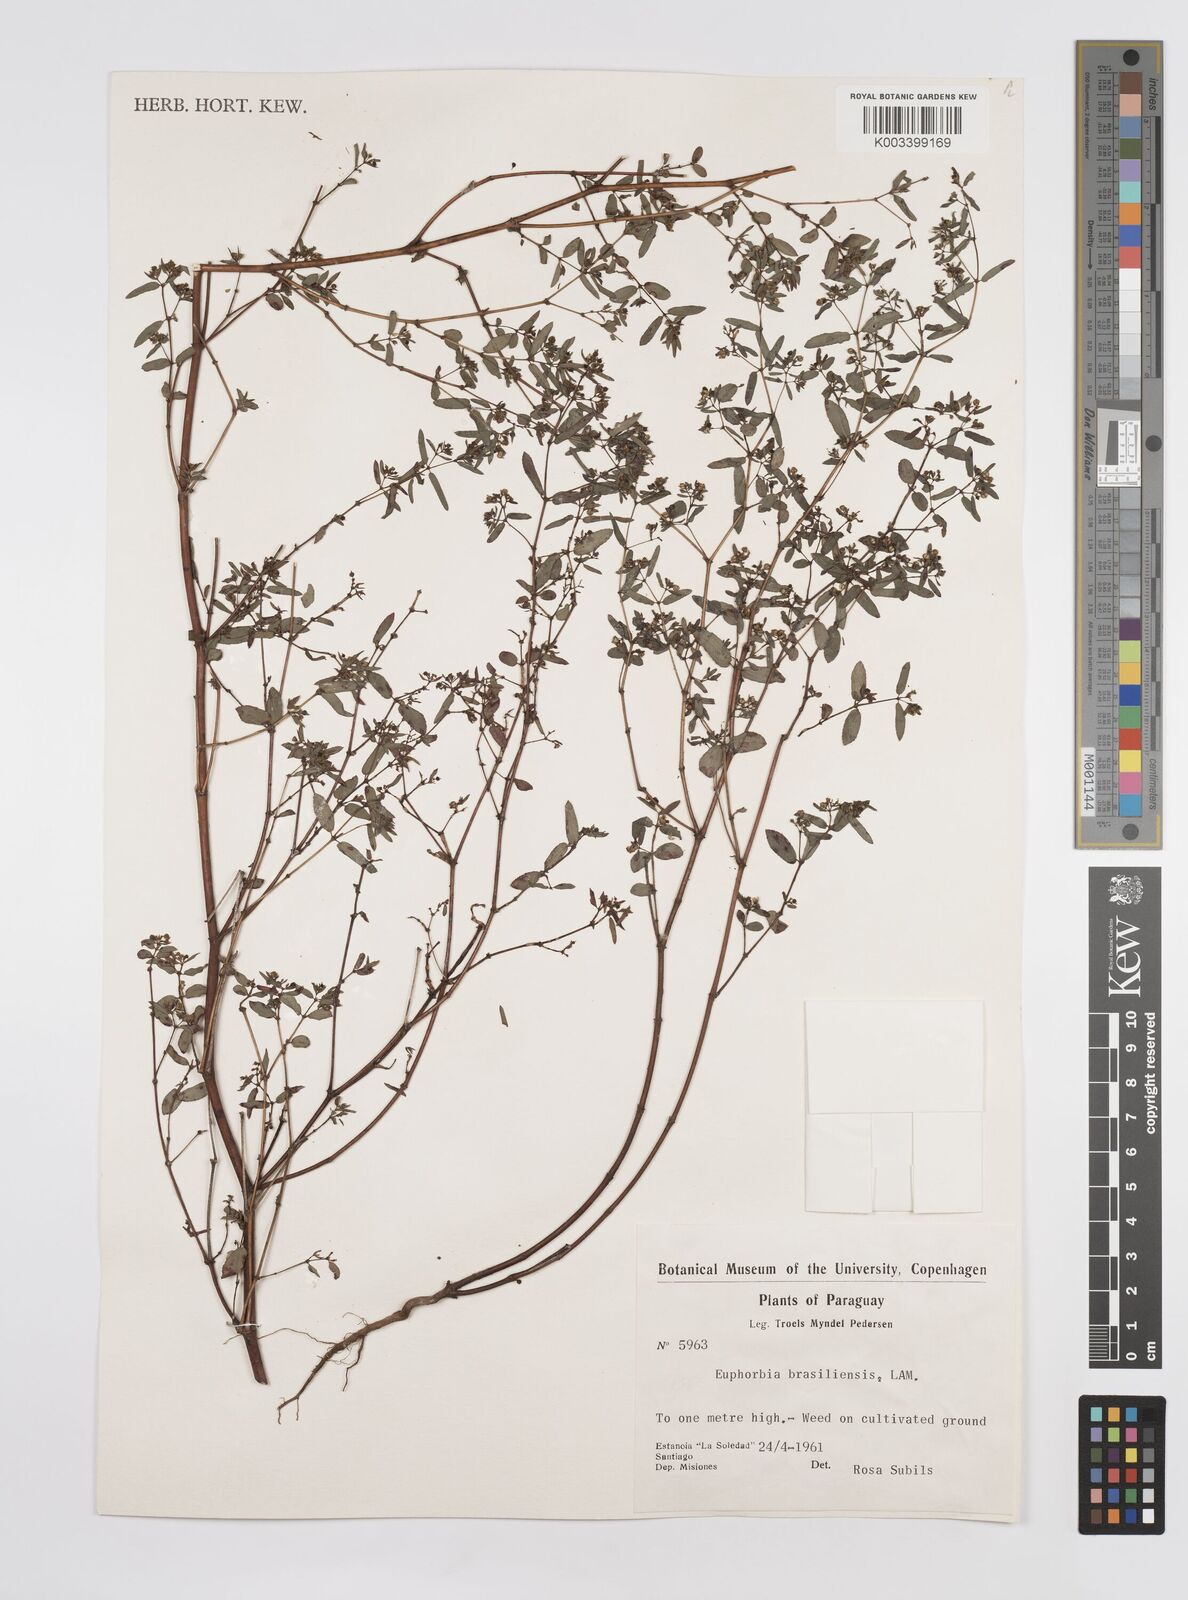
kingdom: Plantae
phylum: Tracheophyta
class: Magnoliopsida
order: Malpighiales
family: Euphorbiaceae
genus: Euphorbia
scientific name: Euphorbia hyssopifolia
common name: Hyssopleaf sandmat
